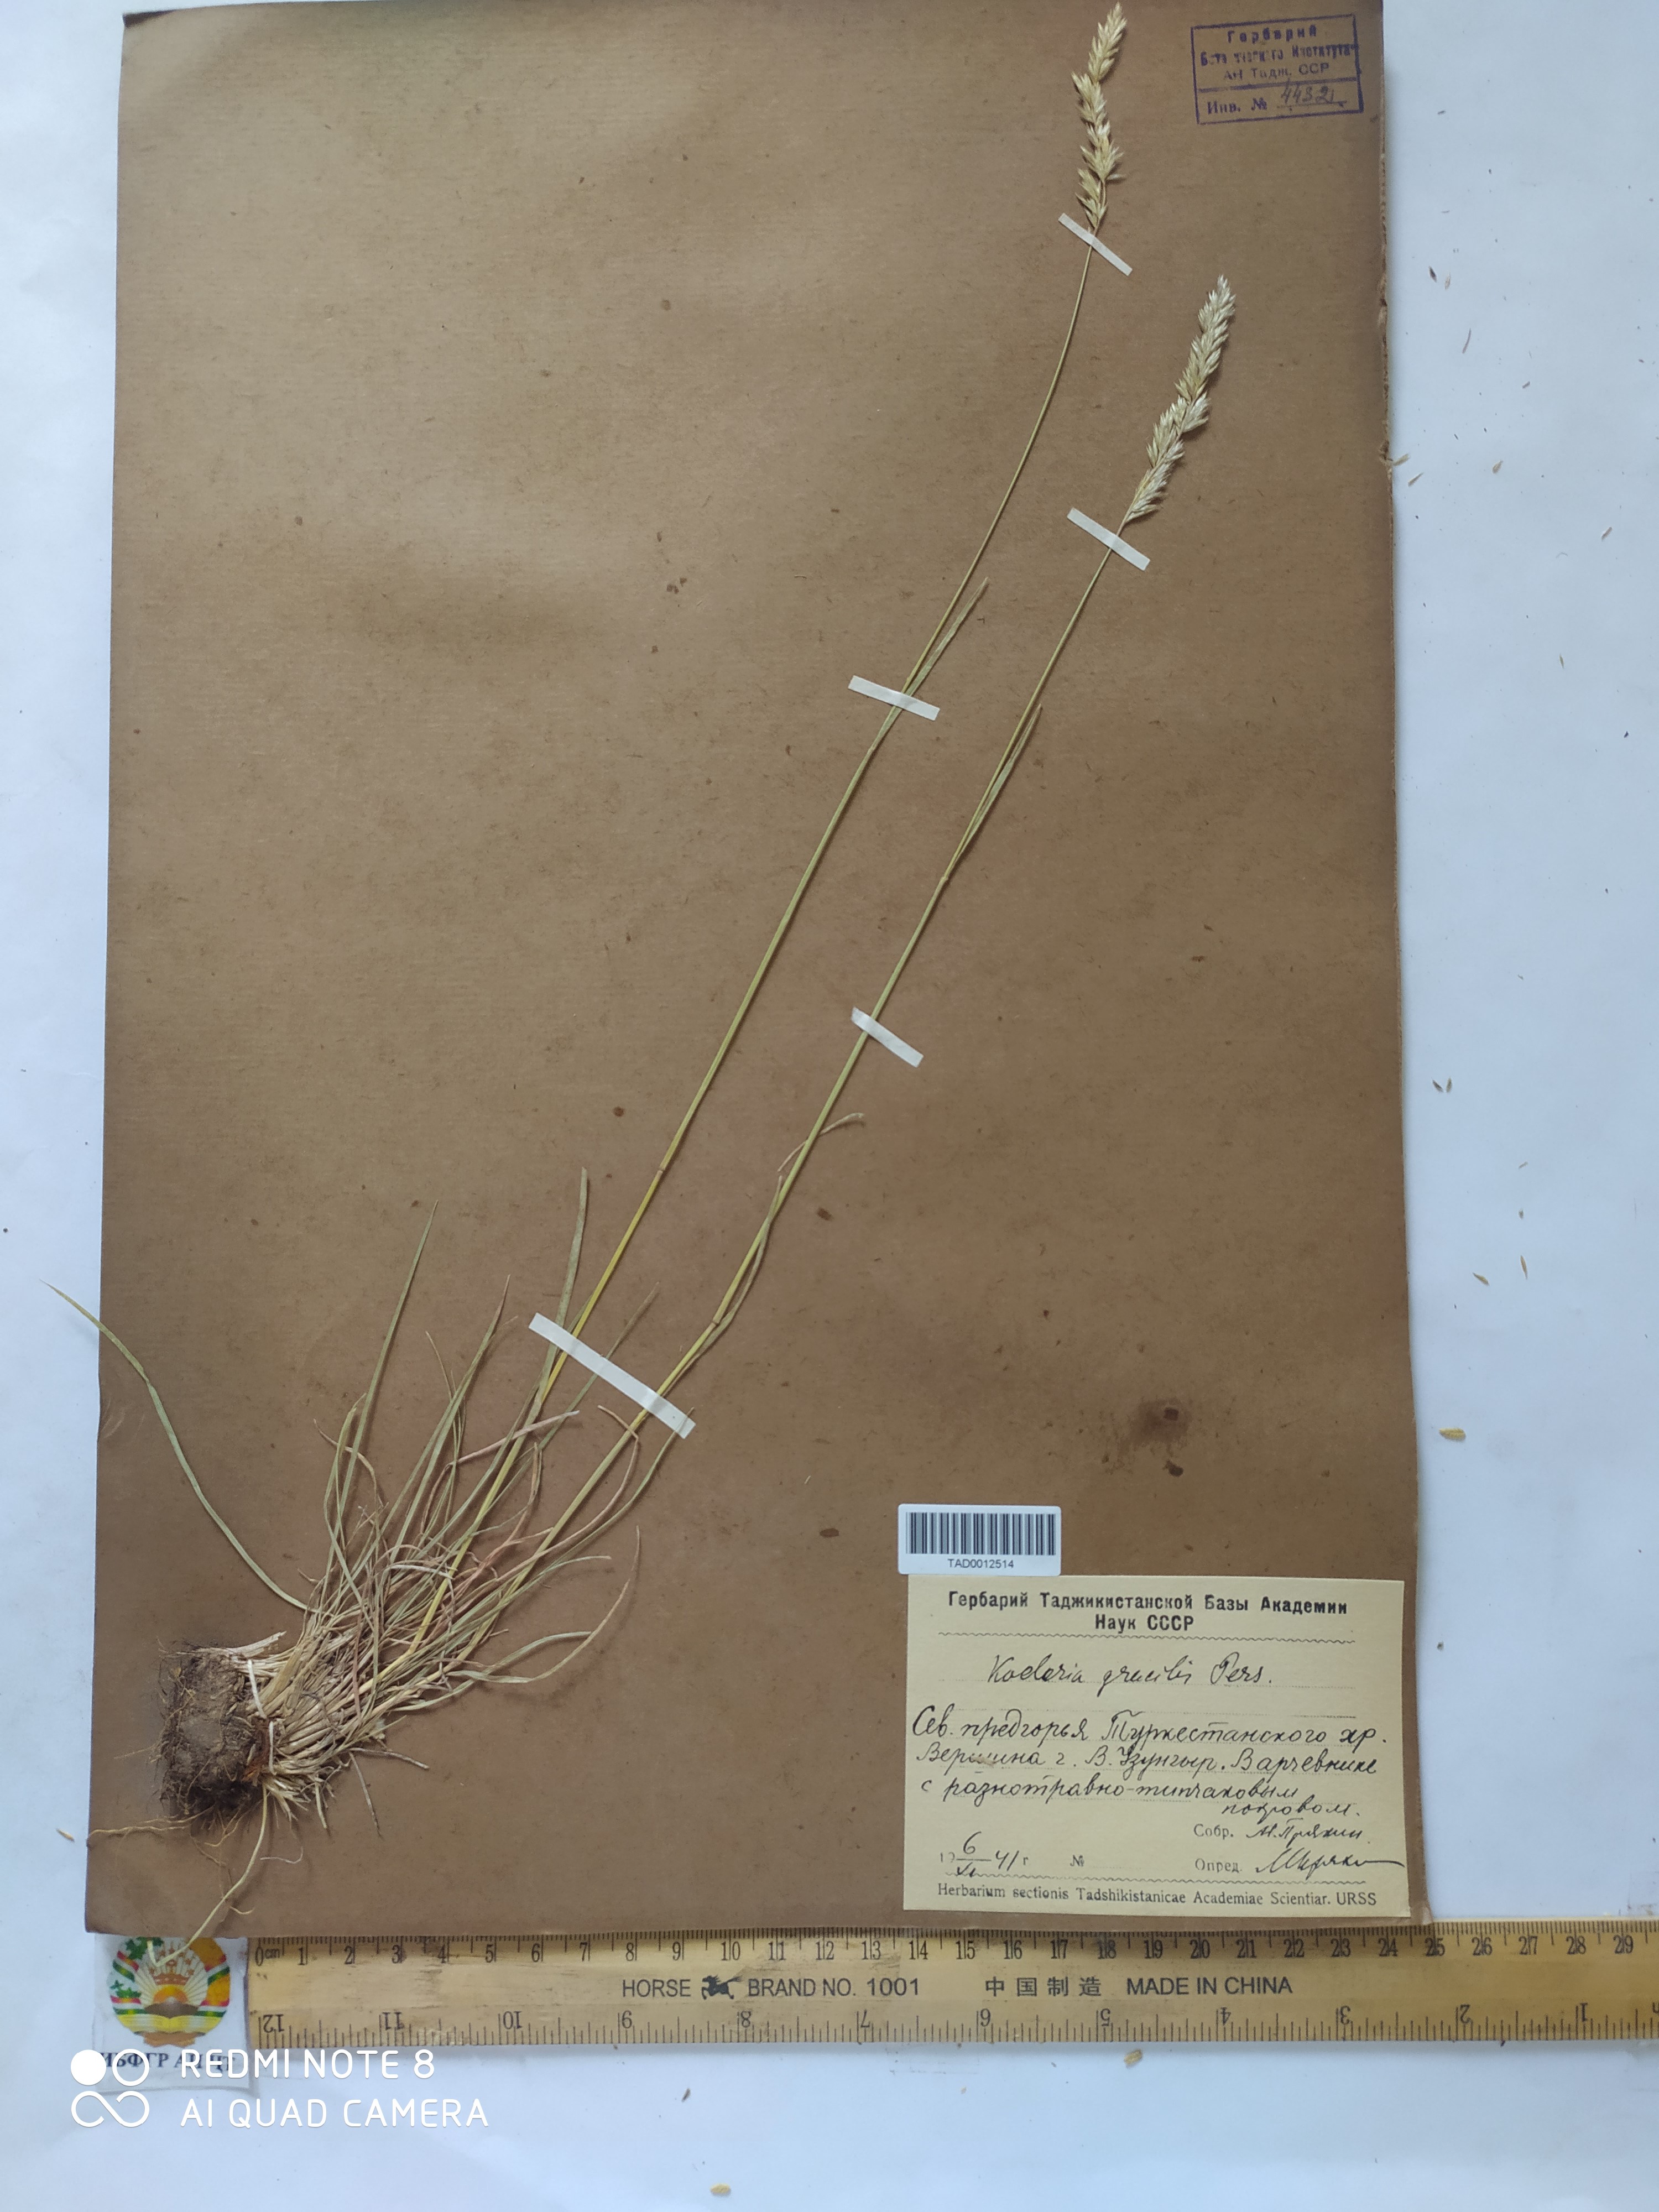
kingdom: Plantae
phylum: Tracheophyta
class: Liliopsida
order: Poales
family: Poaceae
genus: Koeleria
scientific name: Koeleria macrantha
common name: Crested hair-grass
